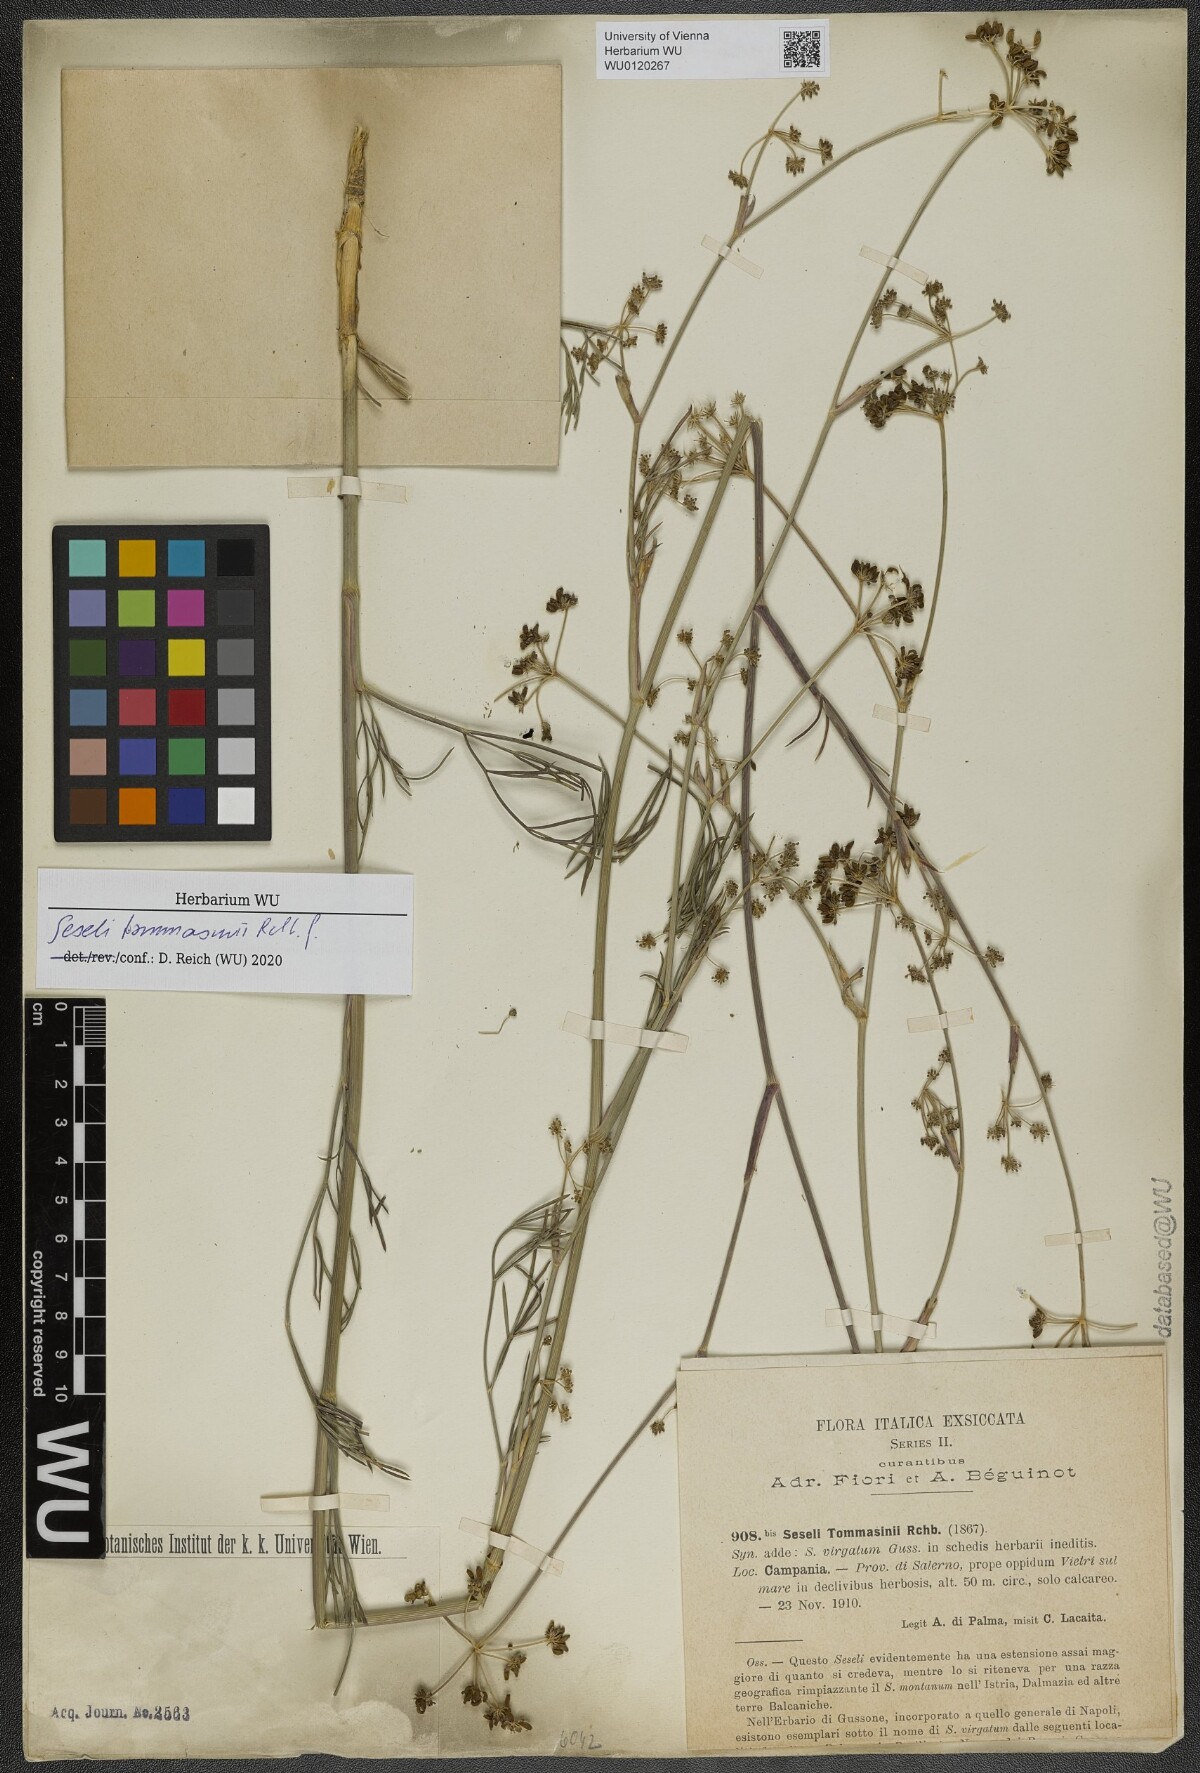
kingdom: Plantae
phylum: Tracheophyta
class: Magnoliopsida
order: Apiales
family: Apiaceae
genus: Seseli
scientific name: Seseli montanum
